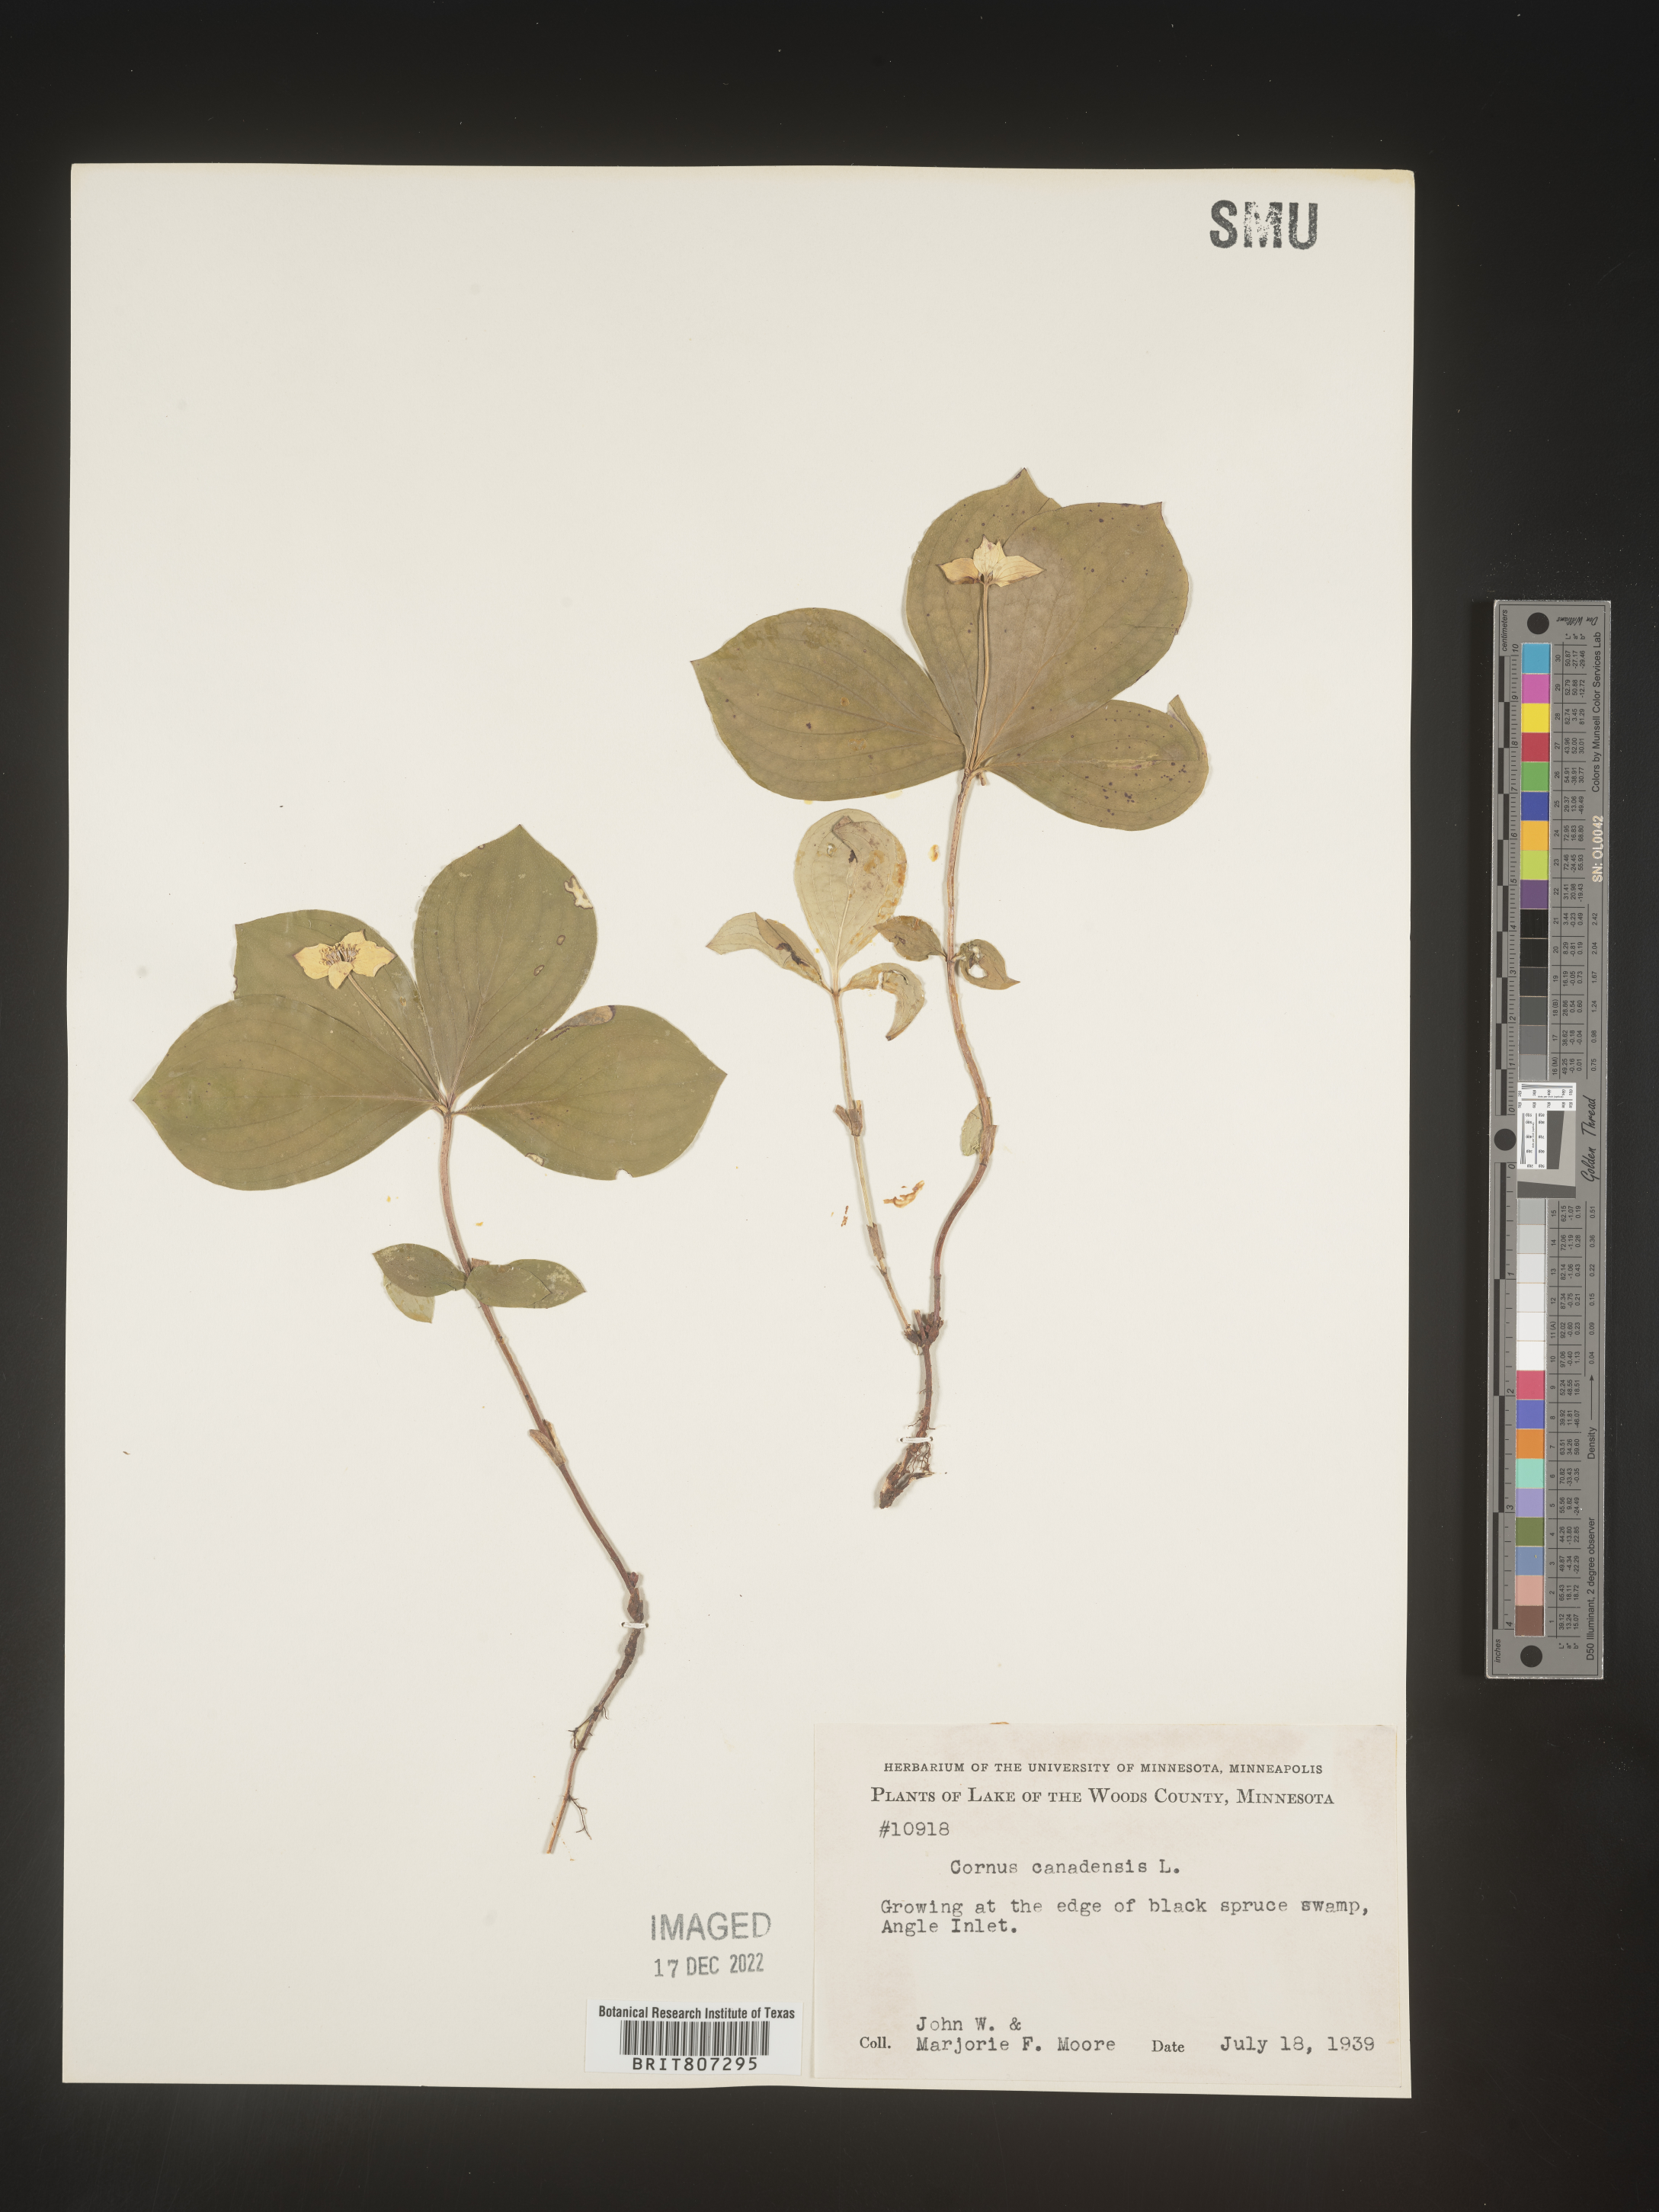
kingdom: Plantae
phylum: Tracheophyta
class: Magnoliopsida
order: Cornales
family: Cornaceae
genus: Cornus
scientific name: Cornus canadensis
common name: Creeping dogwood
